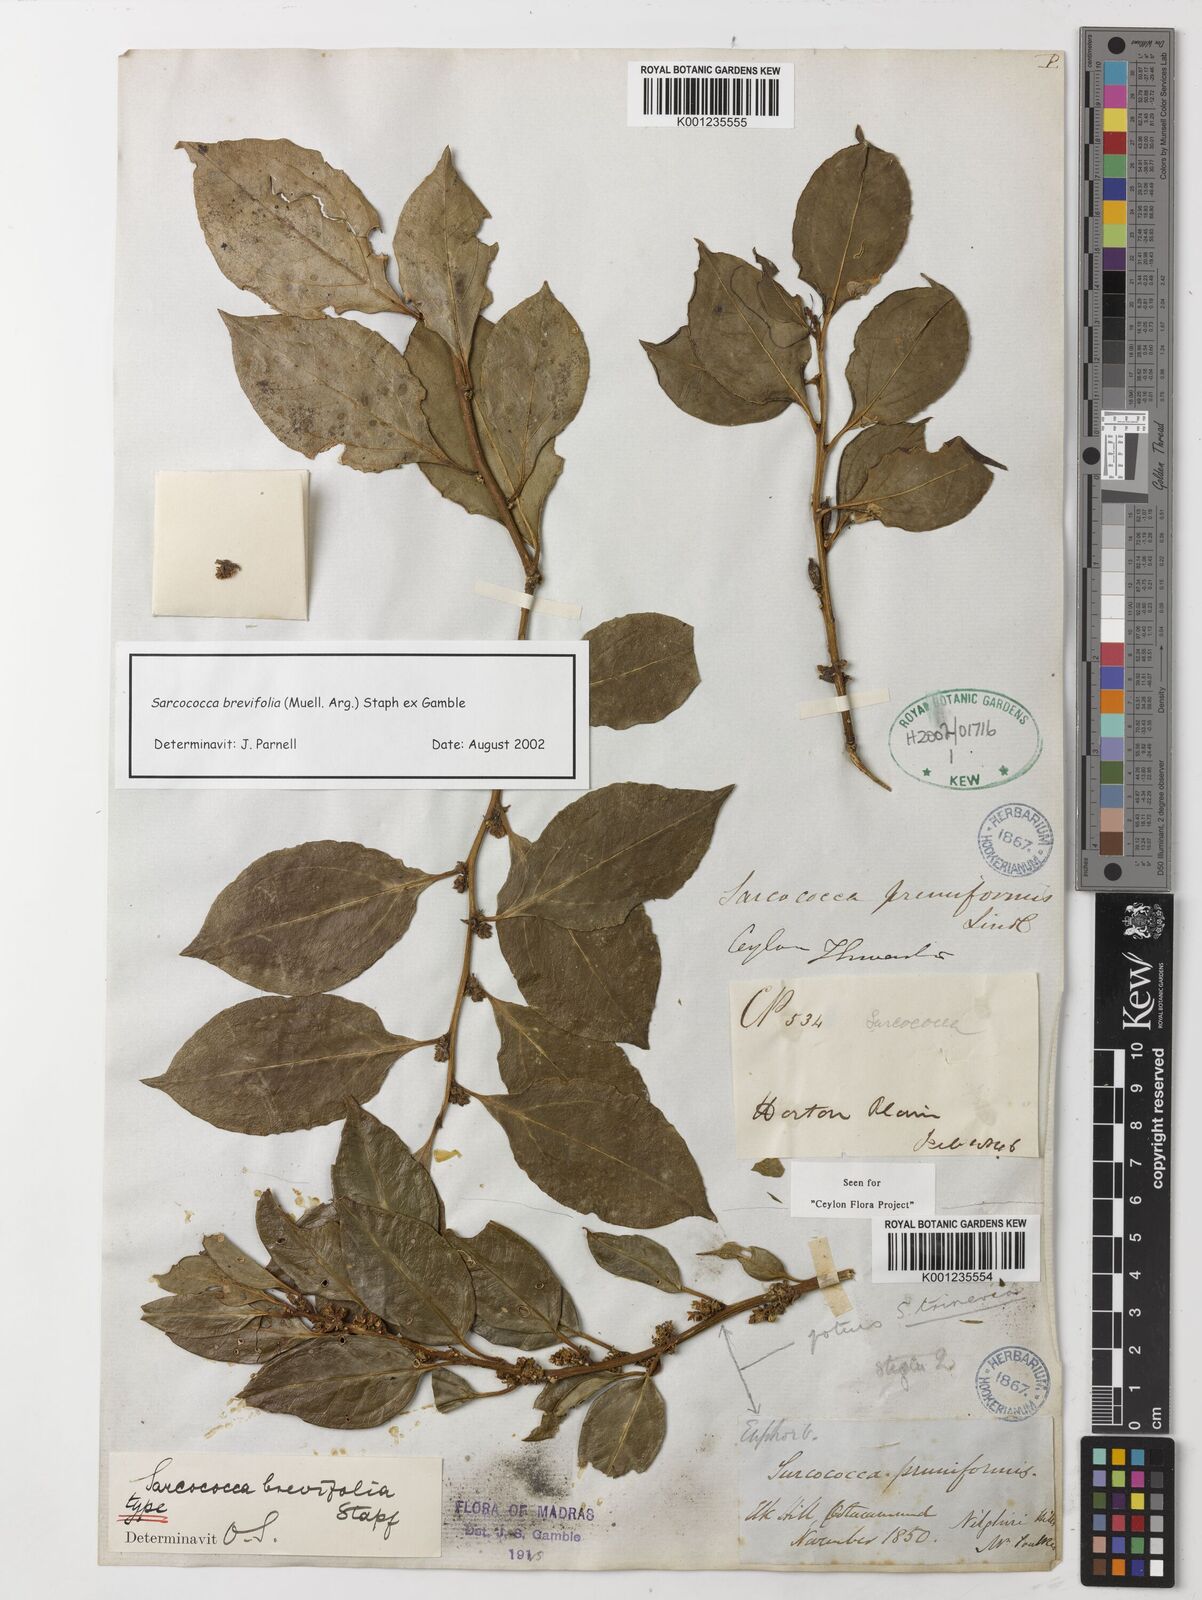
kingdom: Plantae
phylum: Tracheophyta
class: Magnoliopsida
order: Buxales
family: Buxaceae
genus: Sarcococca
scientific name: Sarcococca coriacea
